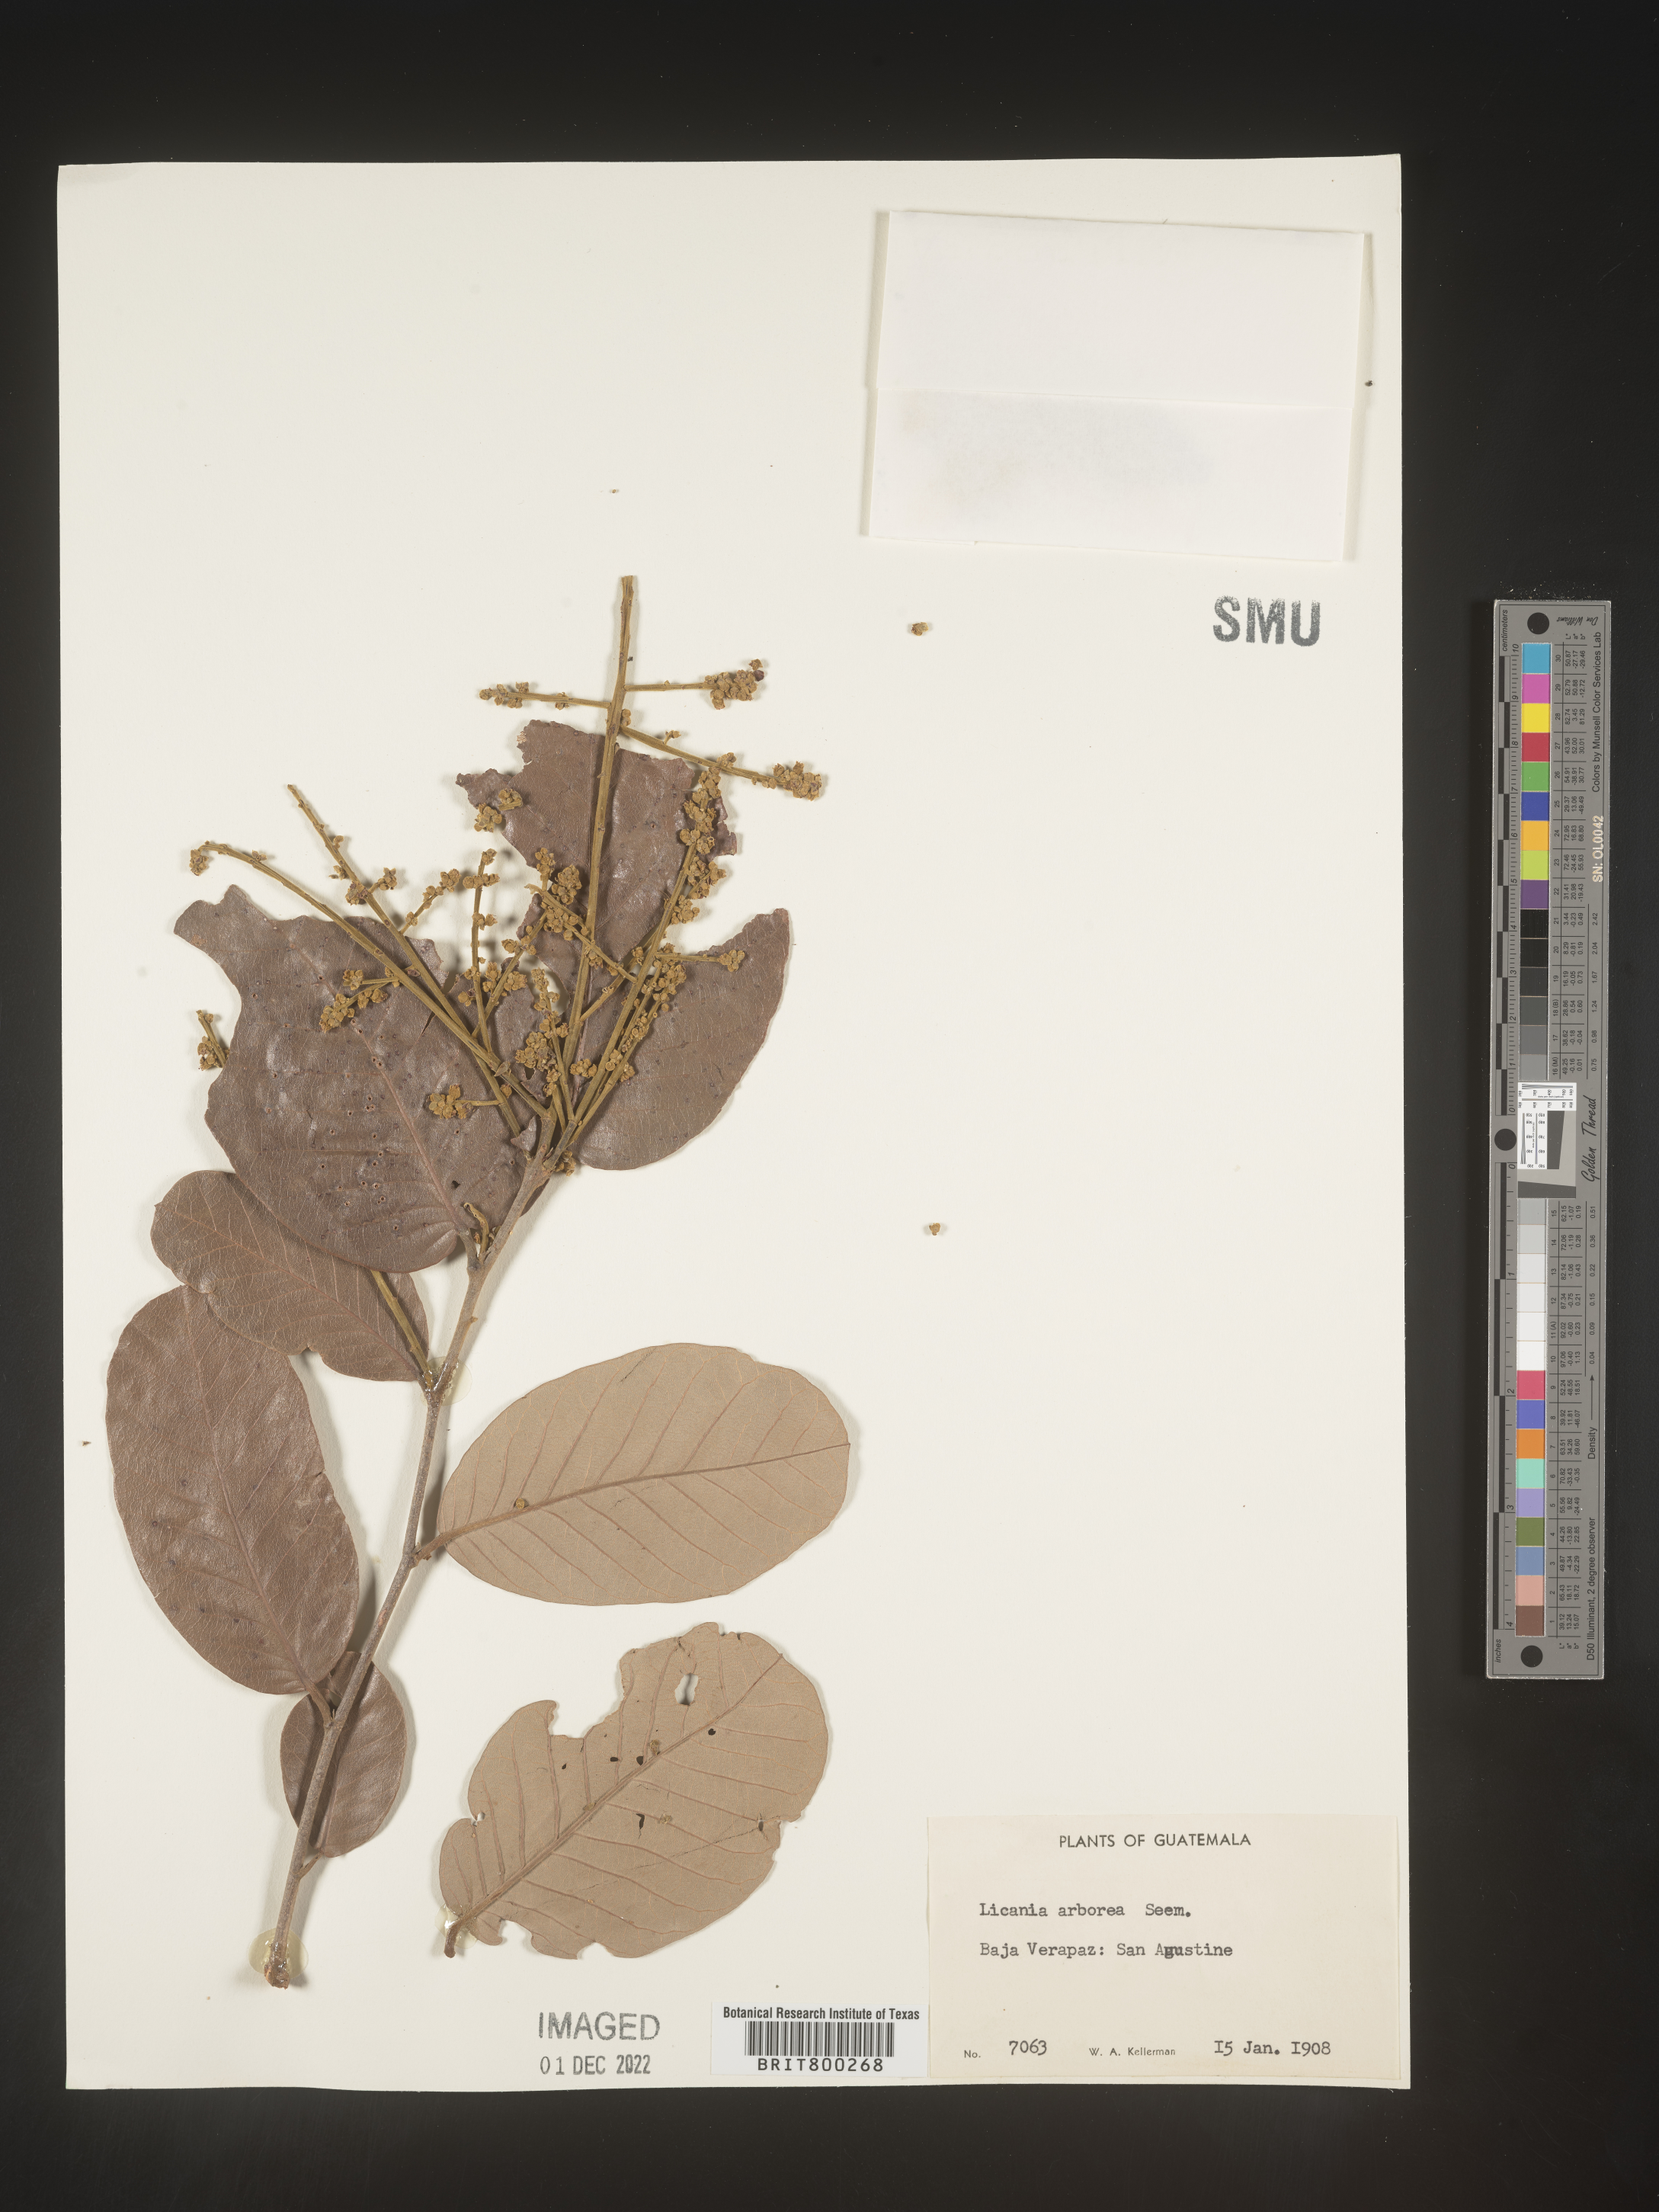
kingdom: Plantae
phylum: Tracheophyta
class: Magnoliopsida
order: Malpighiales
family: Chrysobalanaceae
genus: Geobalanus
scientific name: Geobalanus oblongifolius
